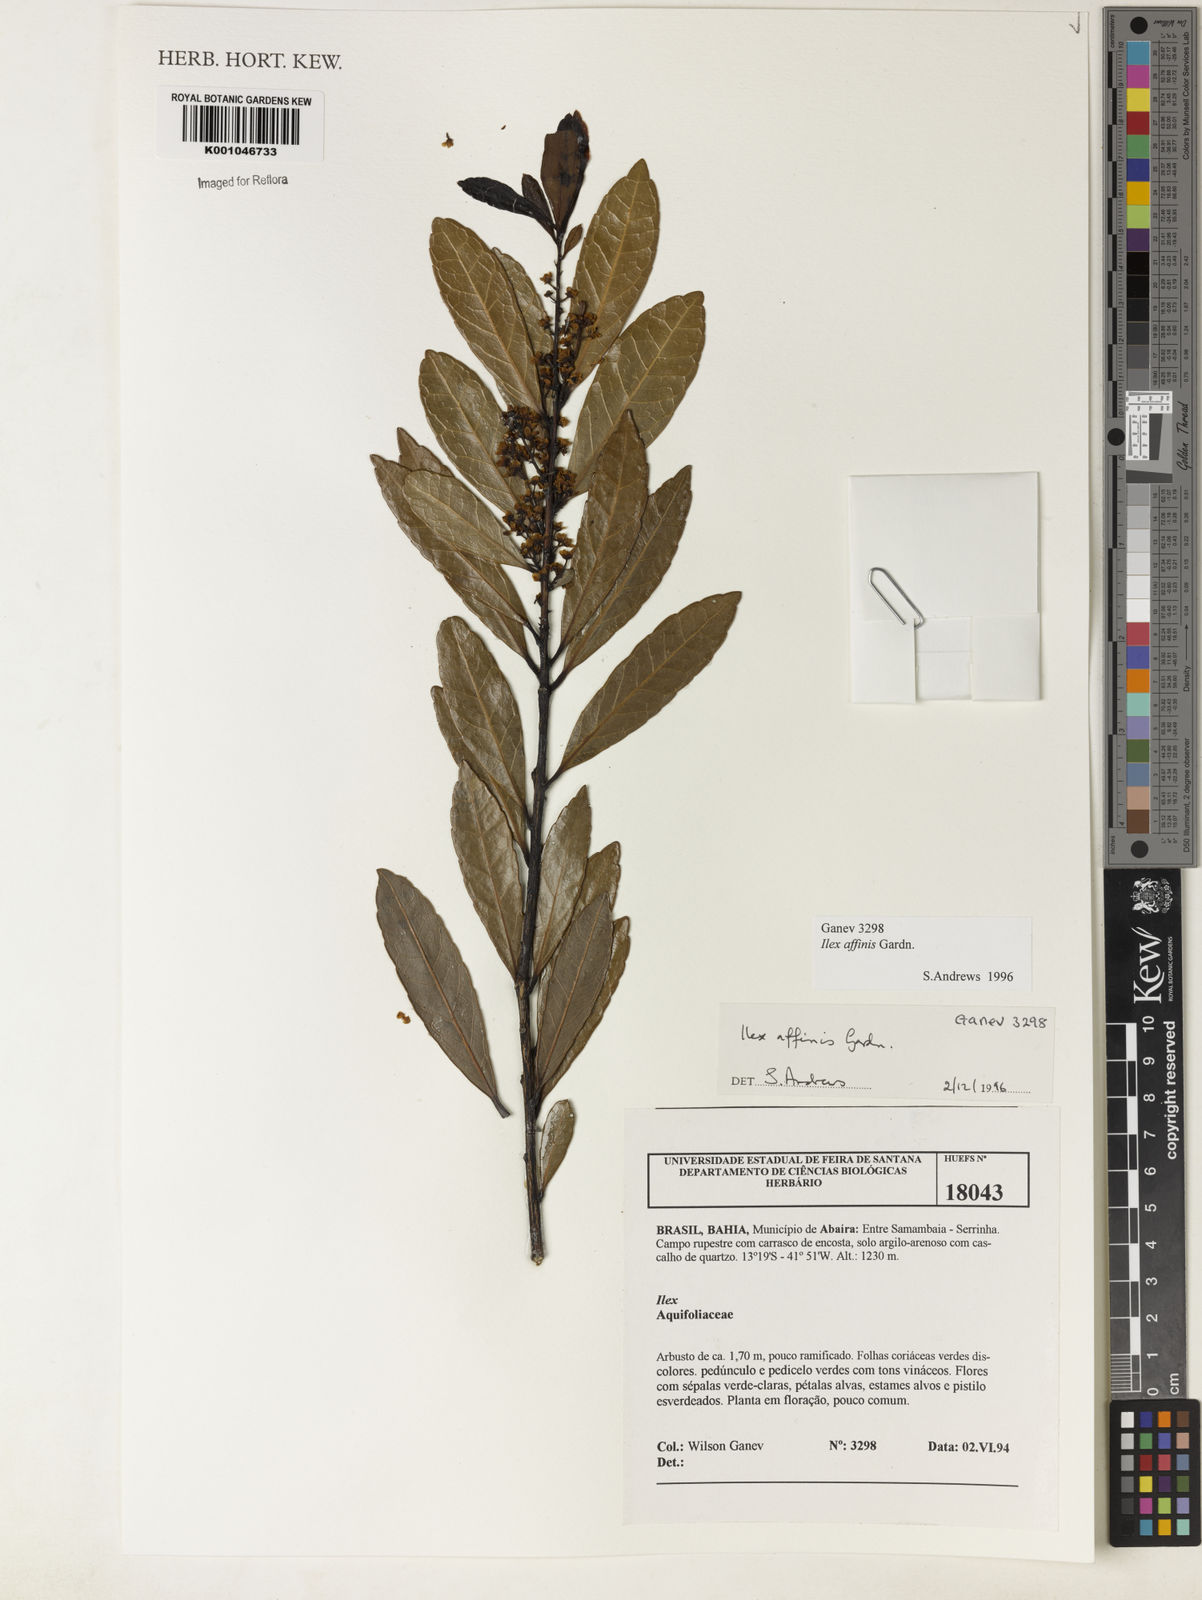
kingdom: Plantae
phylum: Tracheophyta
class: Magnoliopsida
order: Aquifoliales
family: Aquifoliaceae
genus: Ilex
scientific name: Ilex affinis
